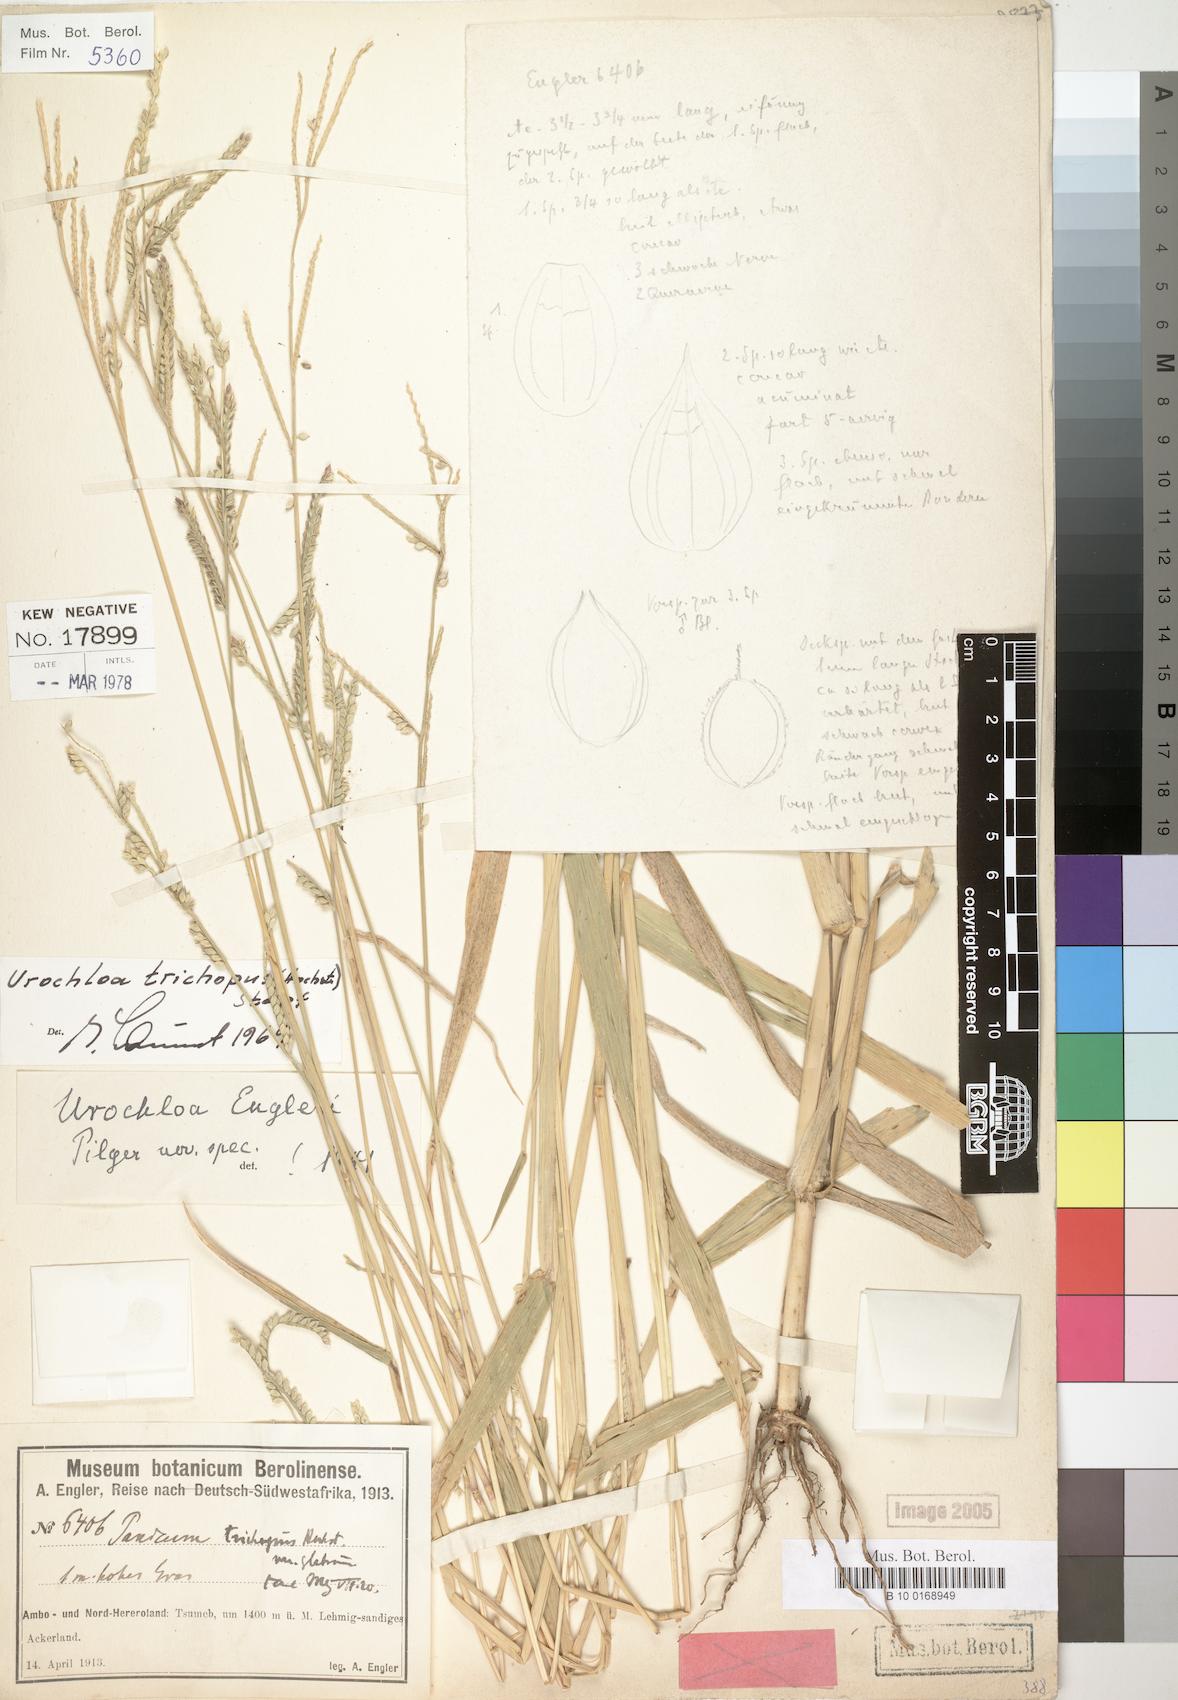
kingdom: Plantae
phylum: Tracheophyta
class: Liliopsida
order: Poales
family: Poaceae
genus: Urochloa
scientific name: Urochloa trichopus
